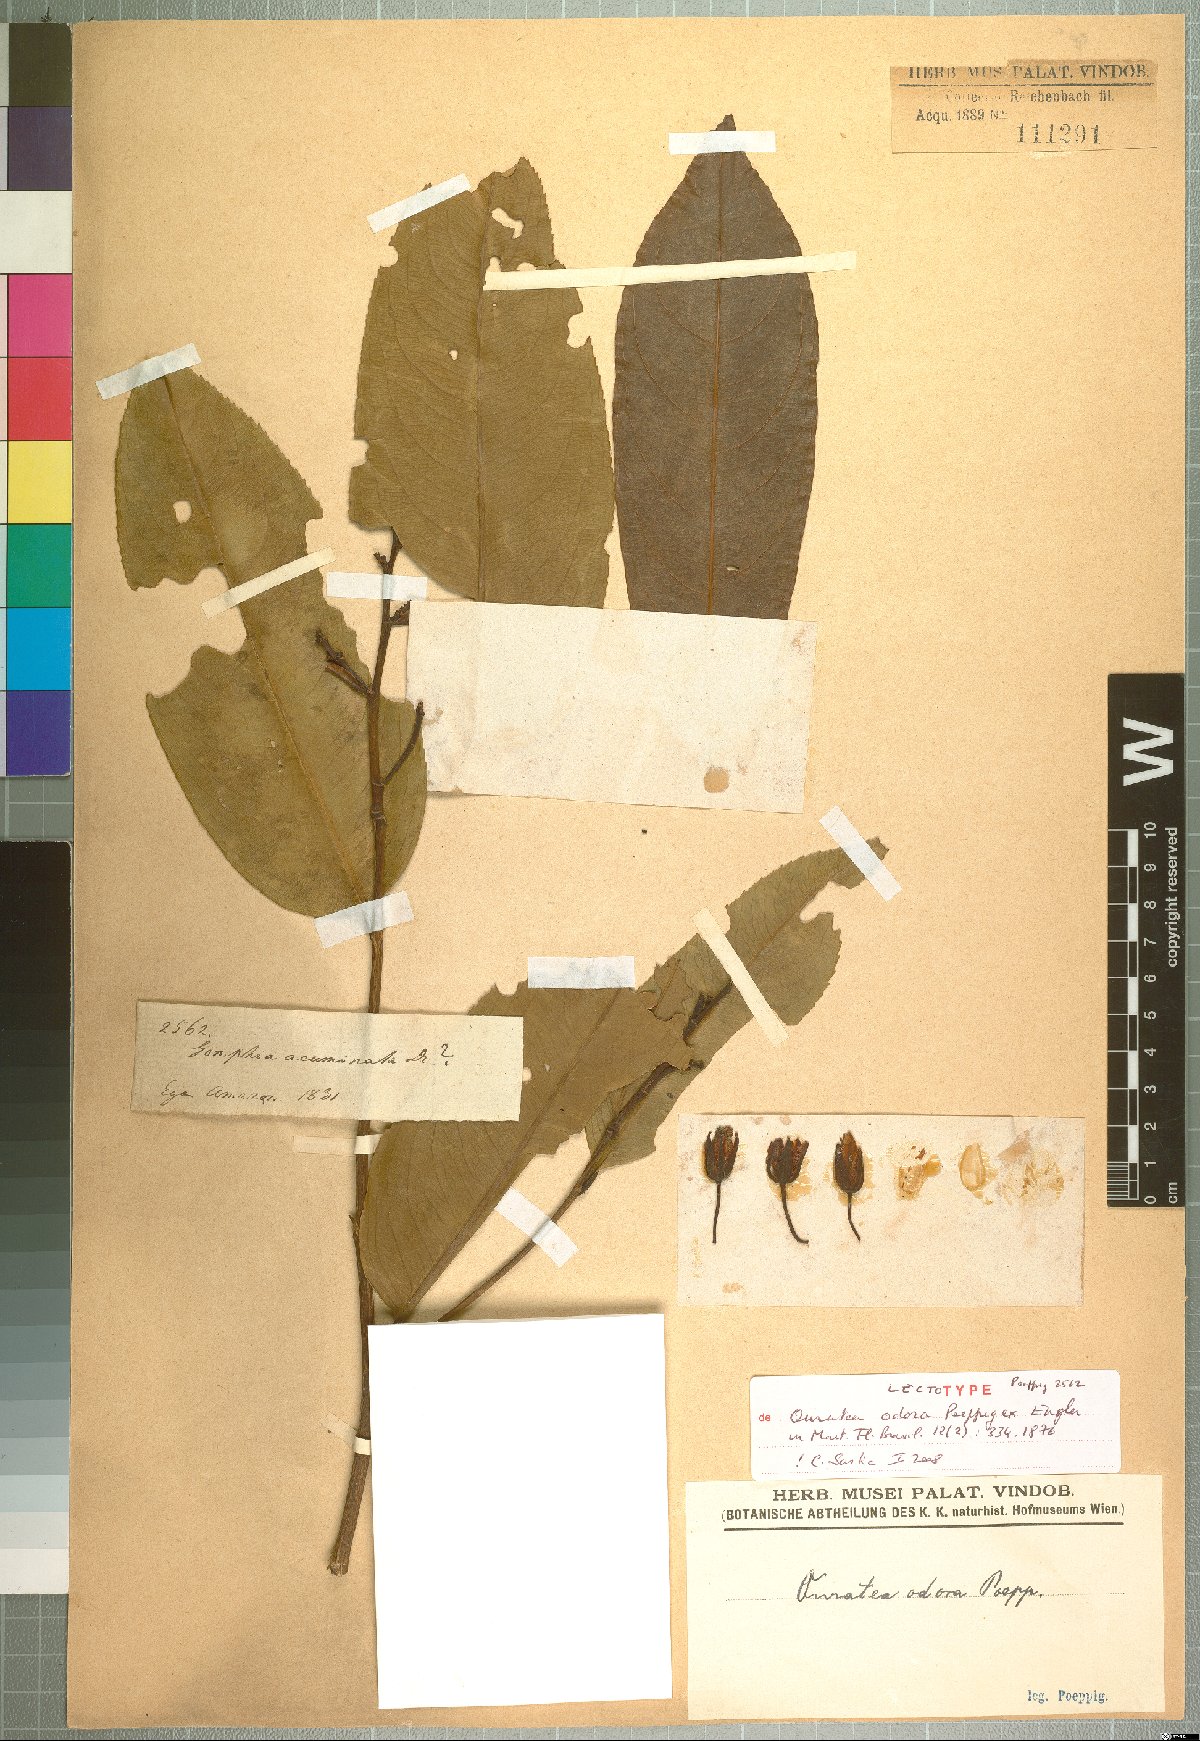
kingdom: Plantae
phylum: Tracheophyta
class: Magnoliopsida
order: Malpighiales
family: Ochnaceae
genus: Ouratea
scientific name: Ouratea superba
